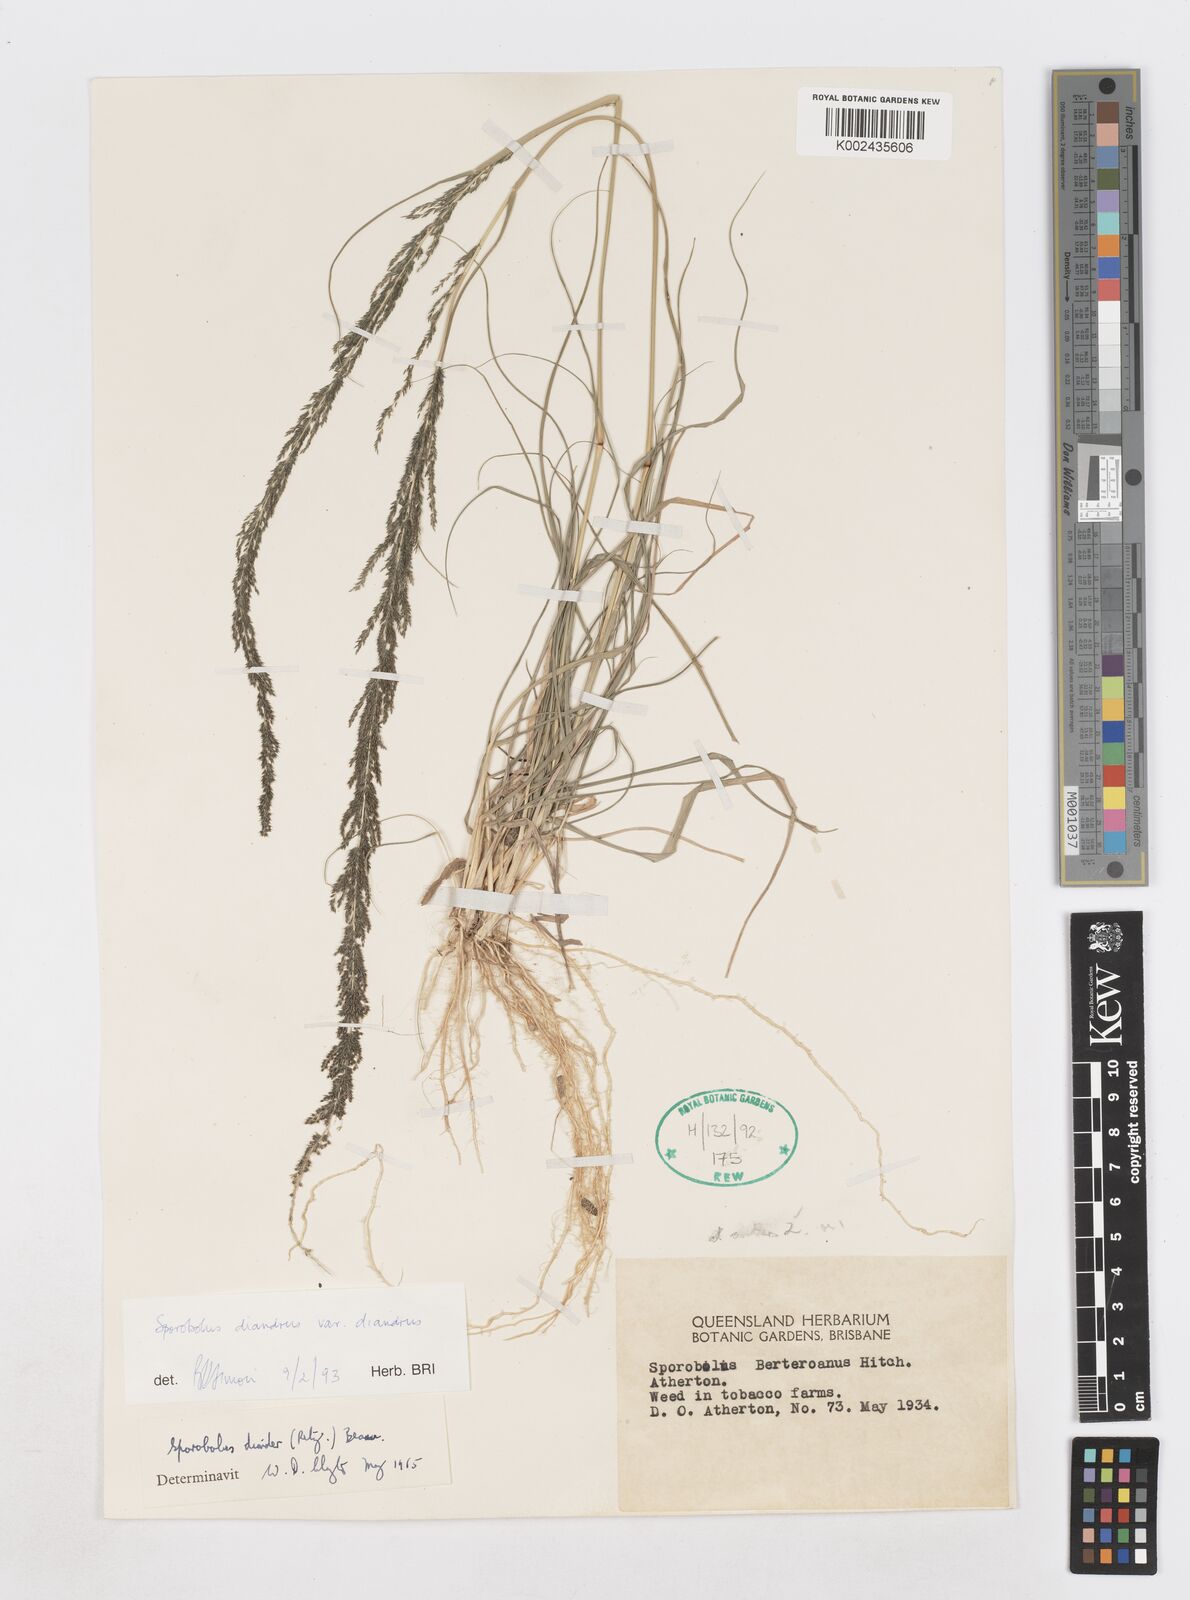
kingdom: Plantae
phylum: Tracheophyta
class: Liliopsida
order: Poales
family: Poaceae
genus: Sporobolus
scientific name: Sporobolus diandrus
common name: Tussock dropseed
